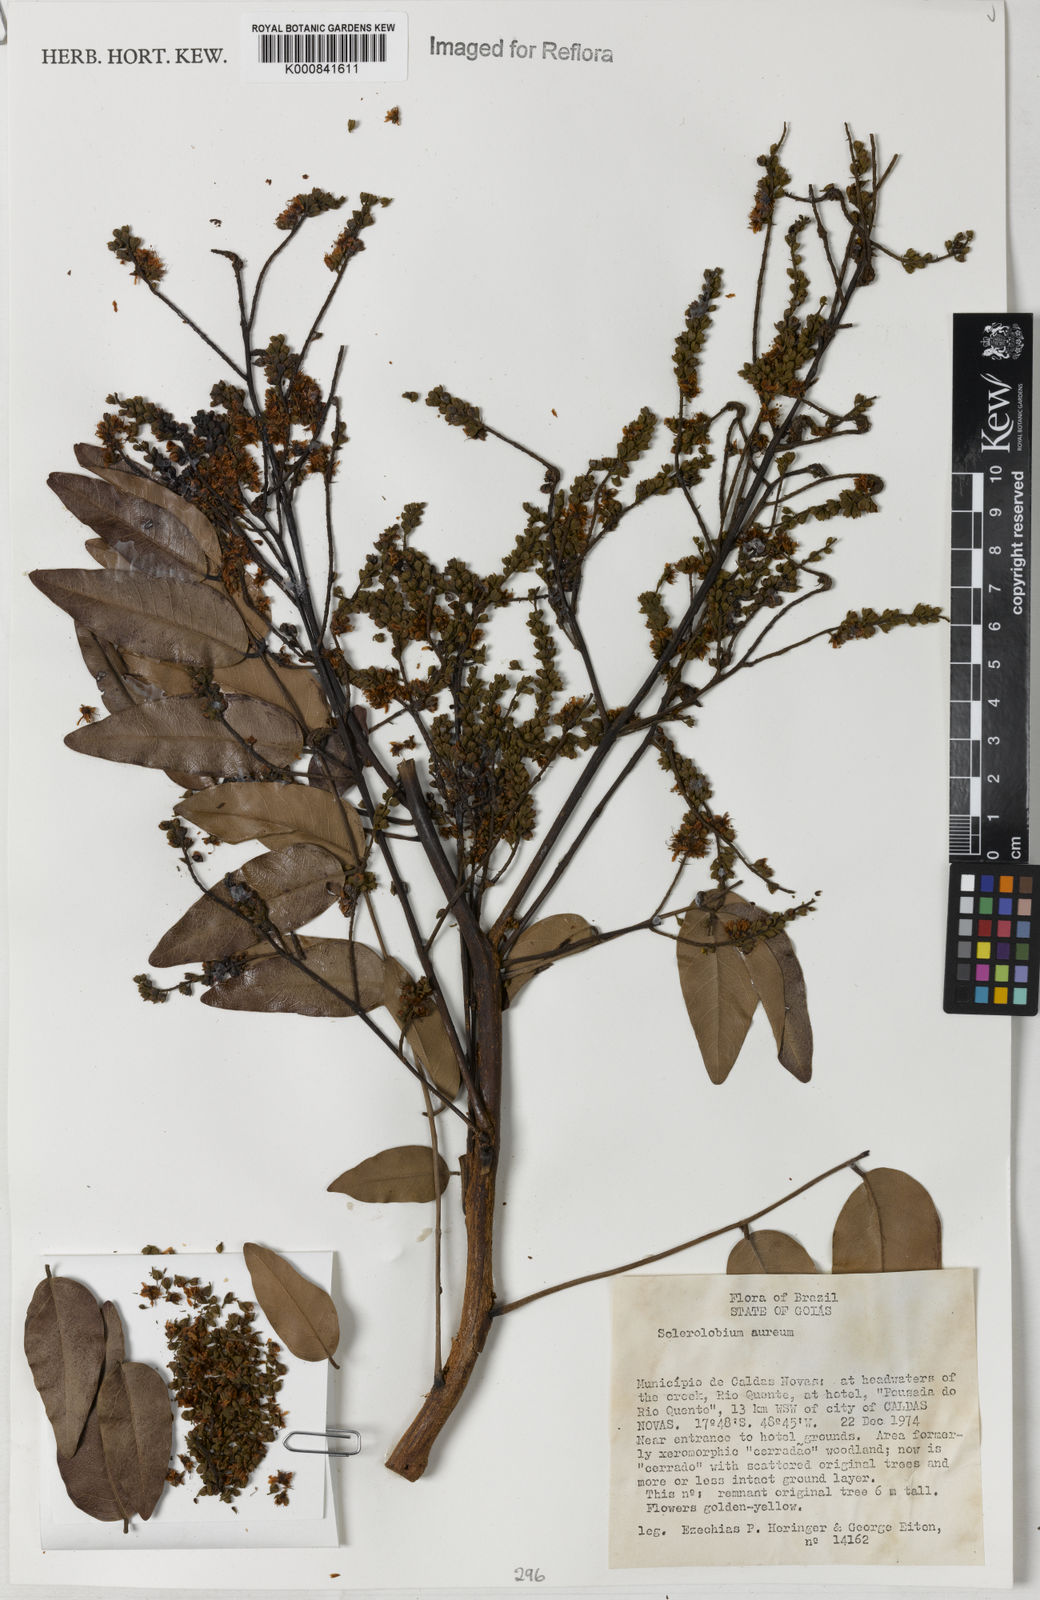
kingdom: Plantae
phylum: Tracheophyta
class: Magnoliopsida
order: Fabales
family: Fabaceae
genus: Tachigali
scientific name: Tachigali aurea
